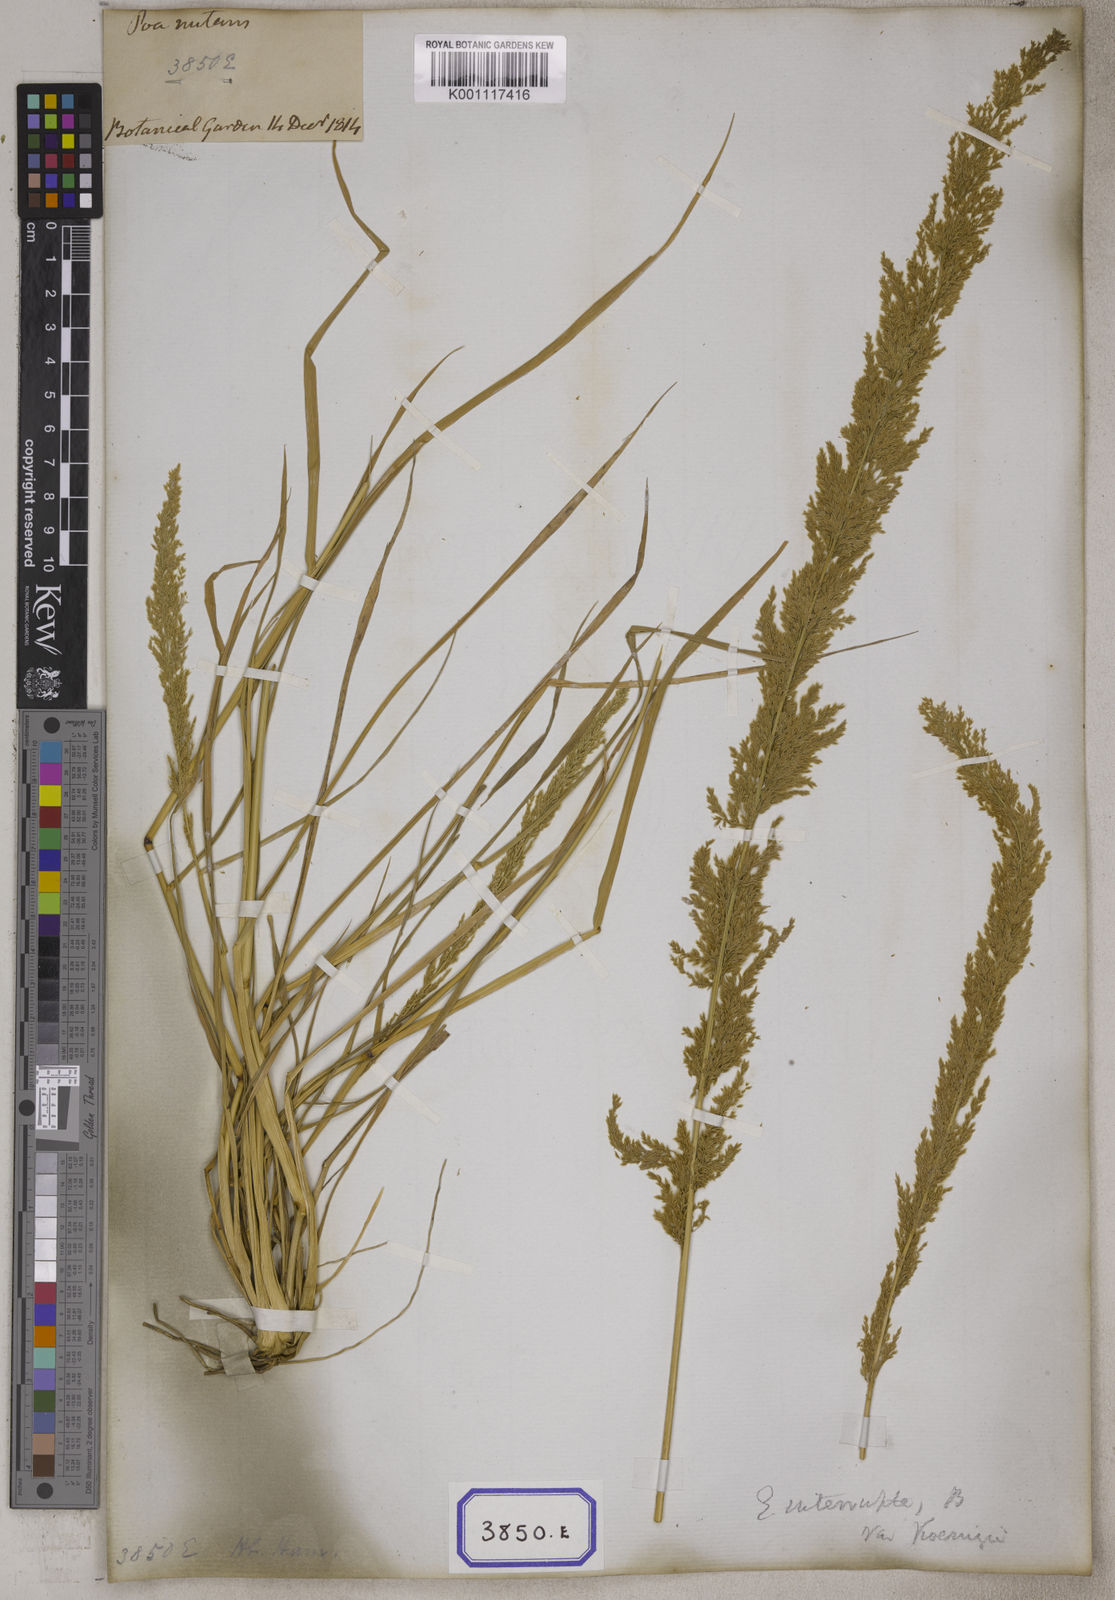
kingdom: Plantae
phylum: Tracheophyta
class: Liliopsida
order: Poales
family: Poaceae
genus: Eragrostis
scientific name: Eragrostis
